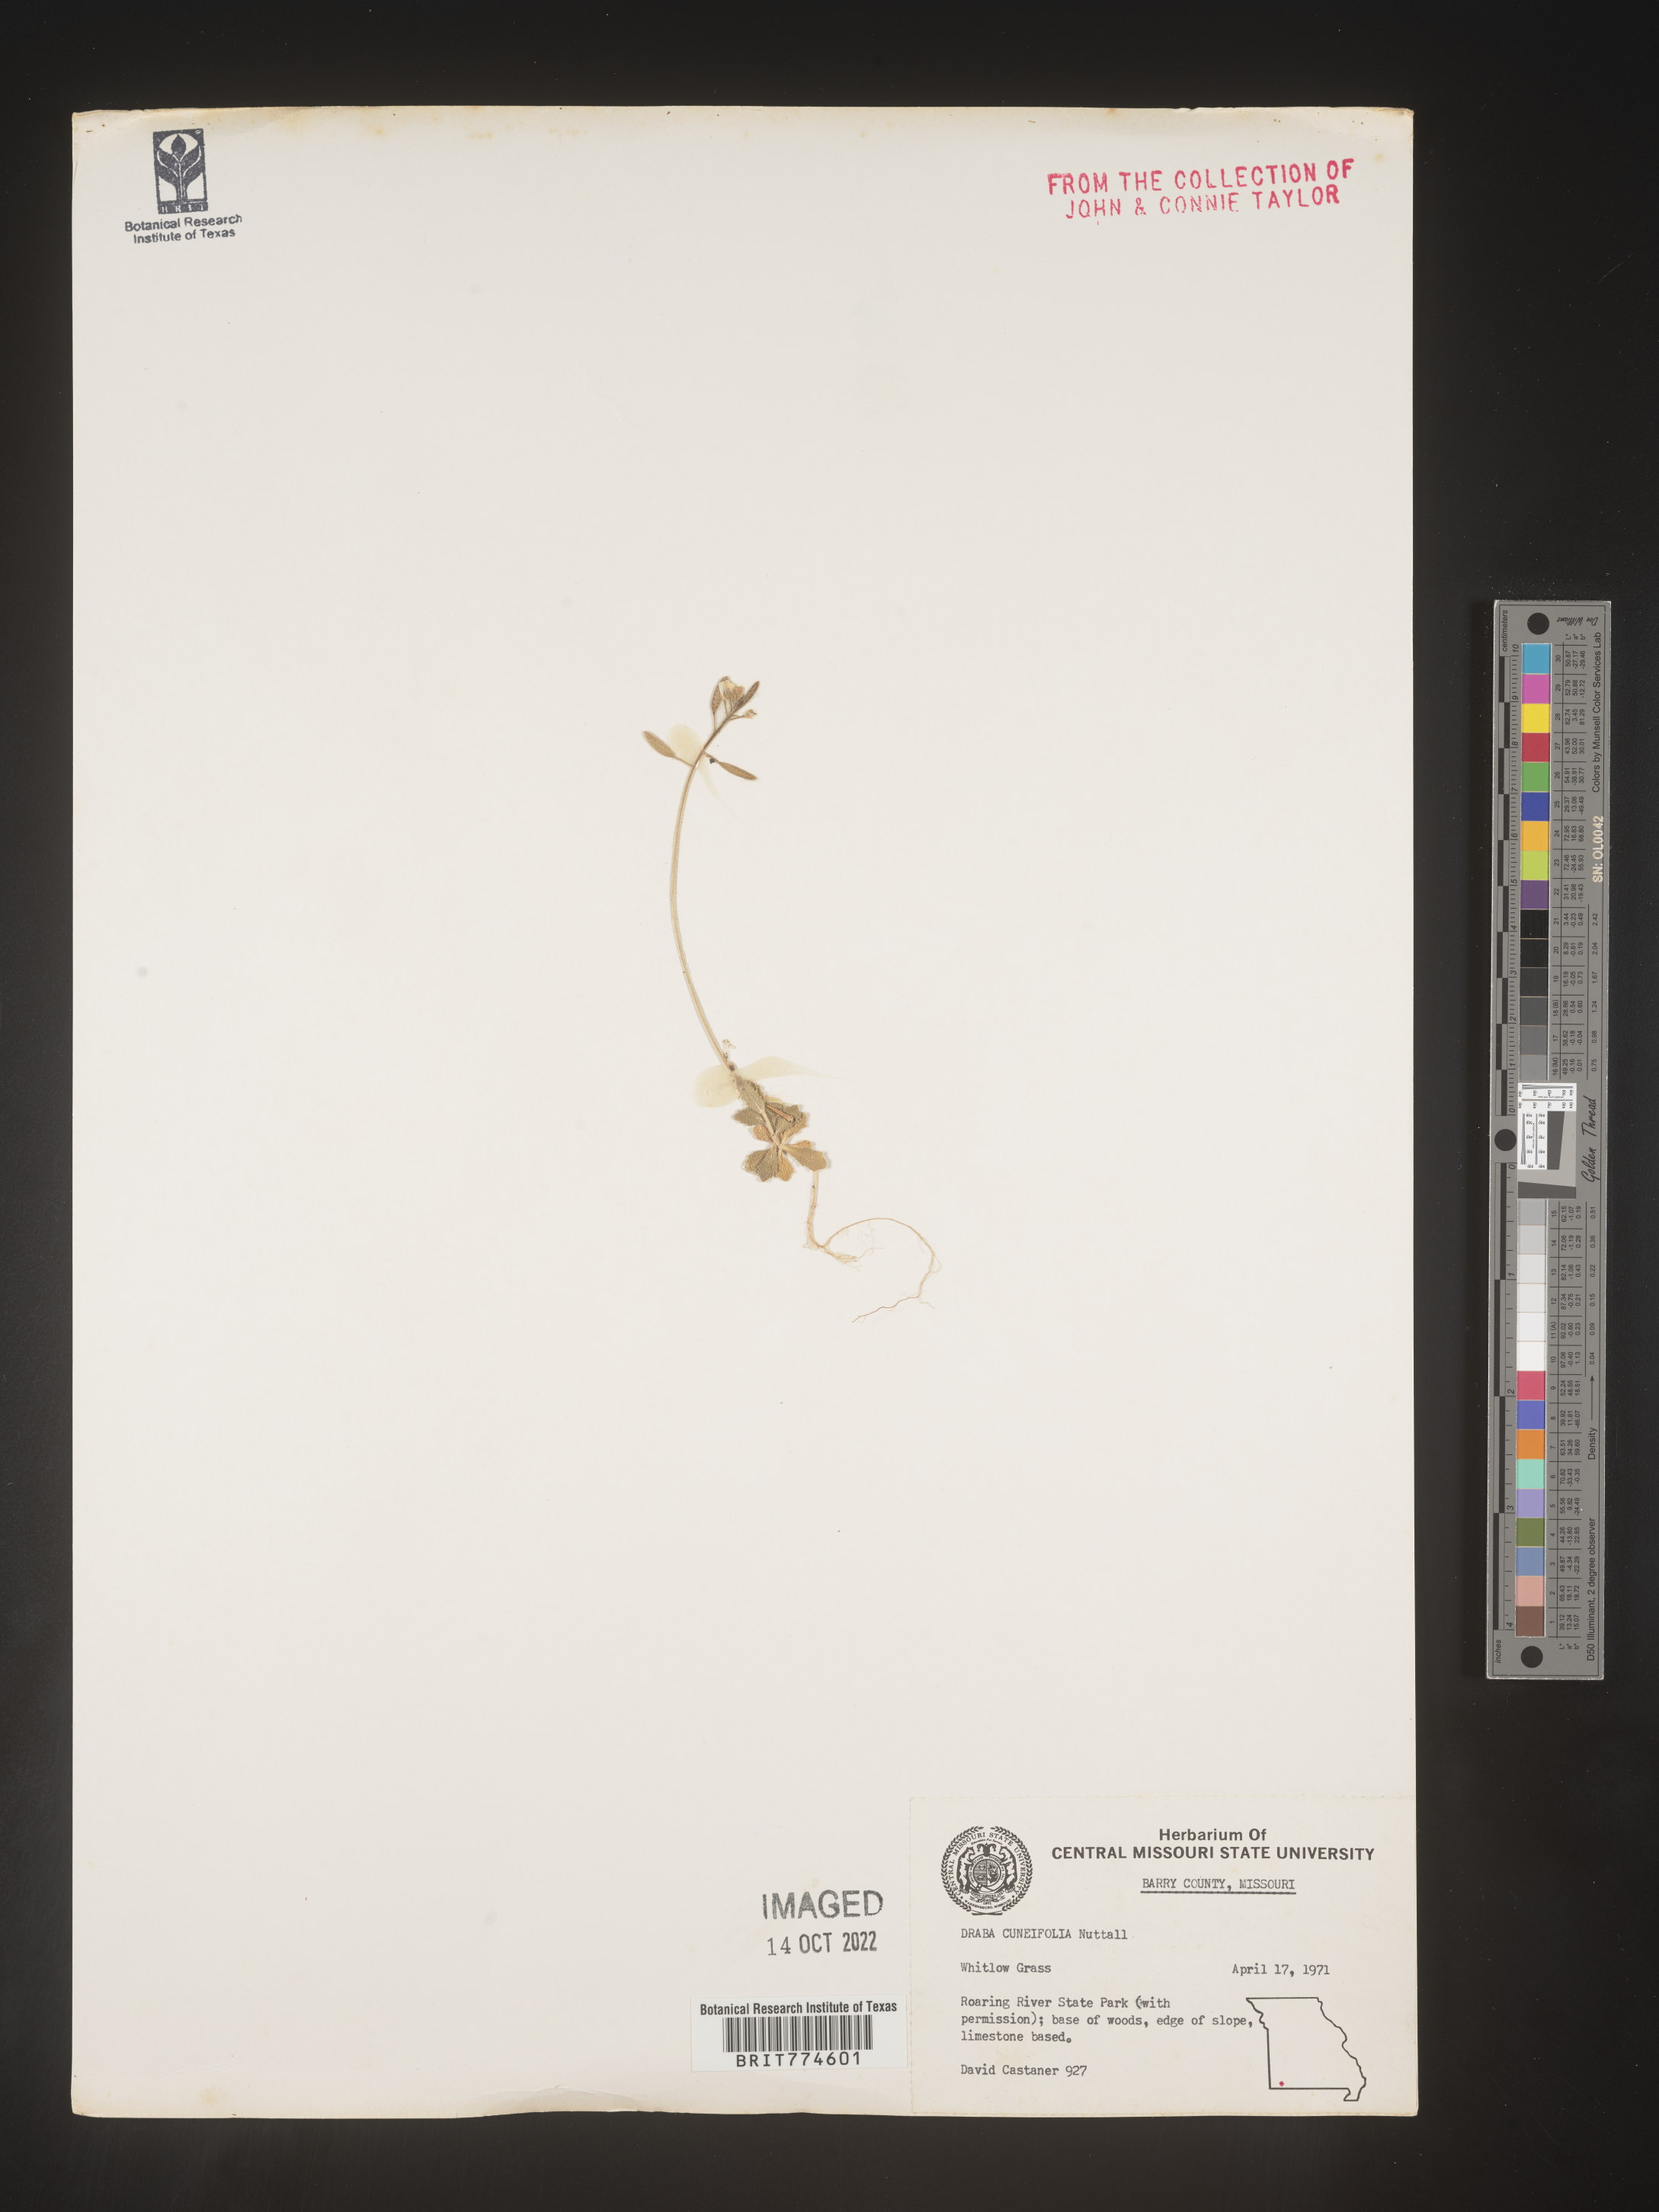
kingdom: Plantae
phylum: Tracheophyta
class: Magnoliopsida
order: Brassicales
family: Brassicaceae
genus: Tomostima
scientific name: Tomostima cuneifolia
